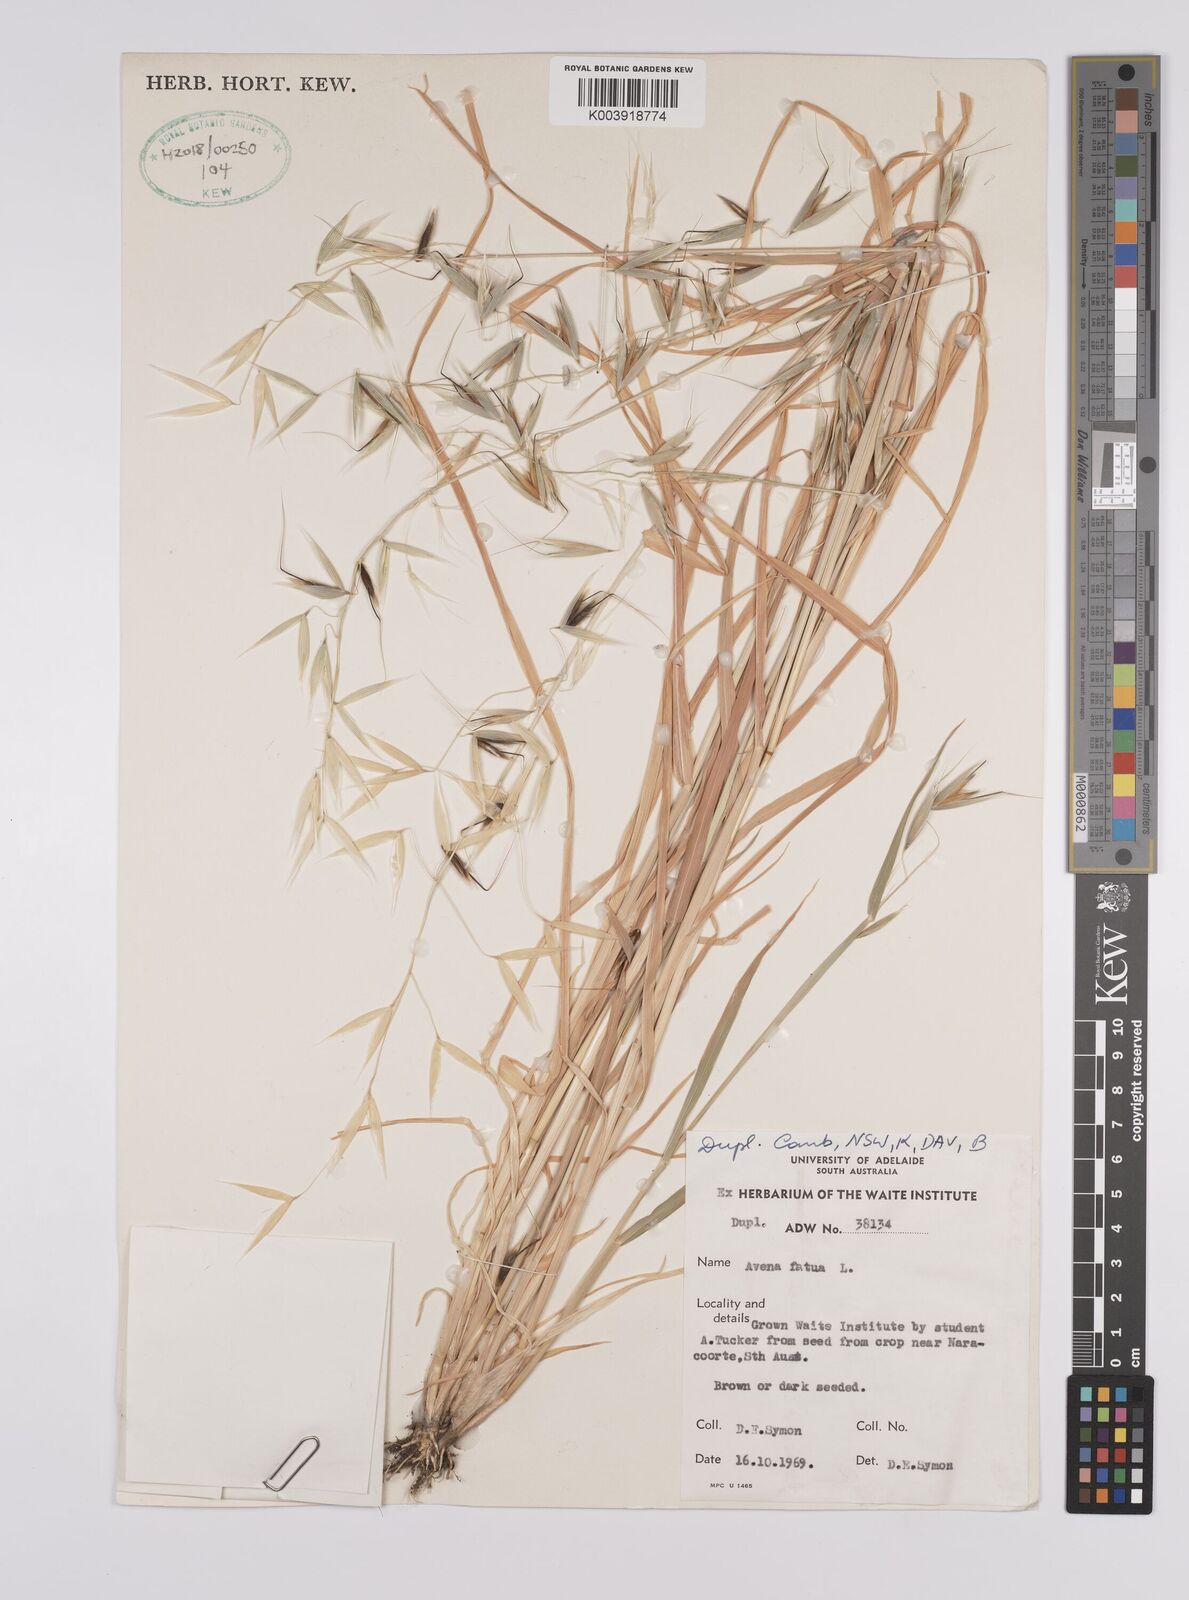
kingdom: Plantae
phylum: Tracheophyta
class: Liliopsida
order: Poales
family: Poaceae
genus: Avena
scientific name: Avena fatua
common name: Wild oat
